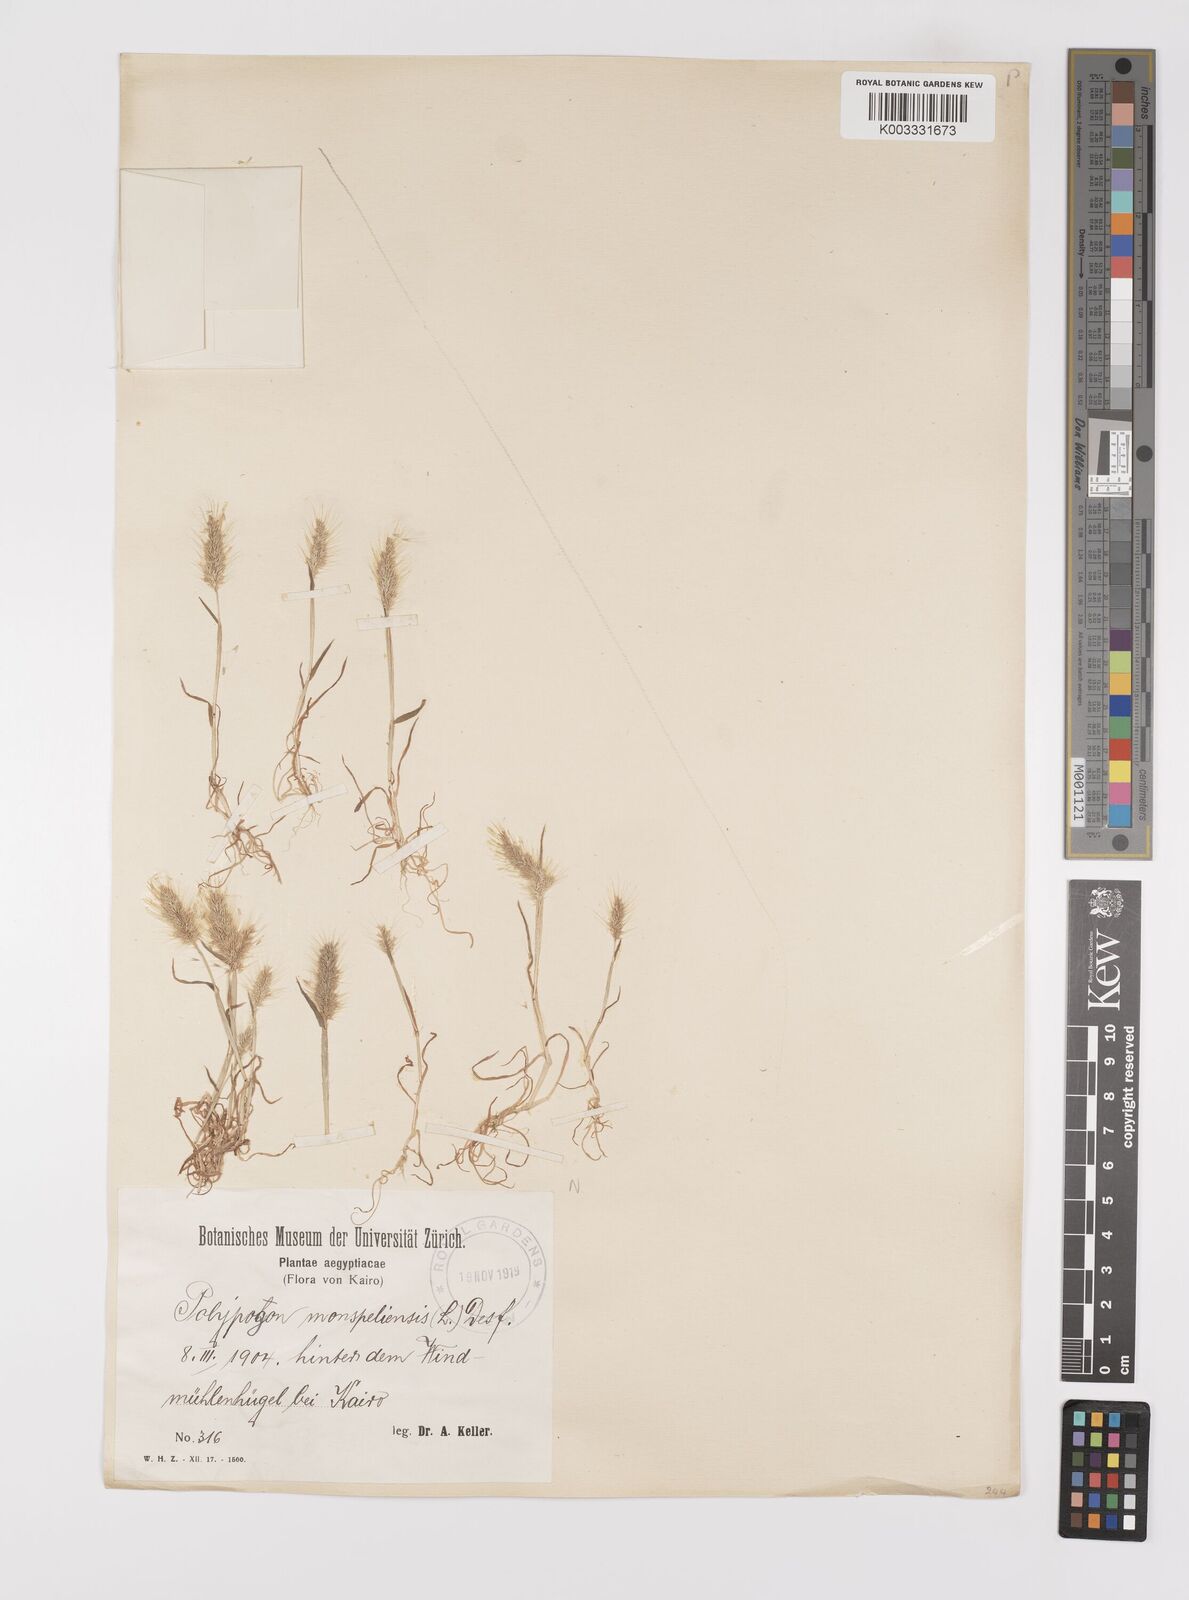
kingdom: Plantae
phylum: Tracheophyta
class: Liliopsida
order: Poales
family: Poaceae
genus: Polypogon
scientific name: Polypogon monspeliensis
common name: Annual rabbitsfoot grass
